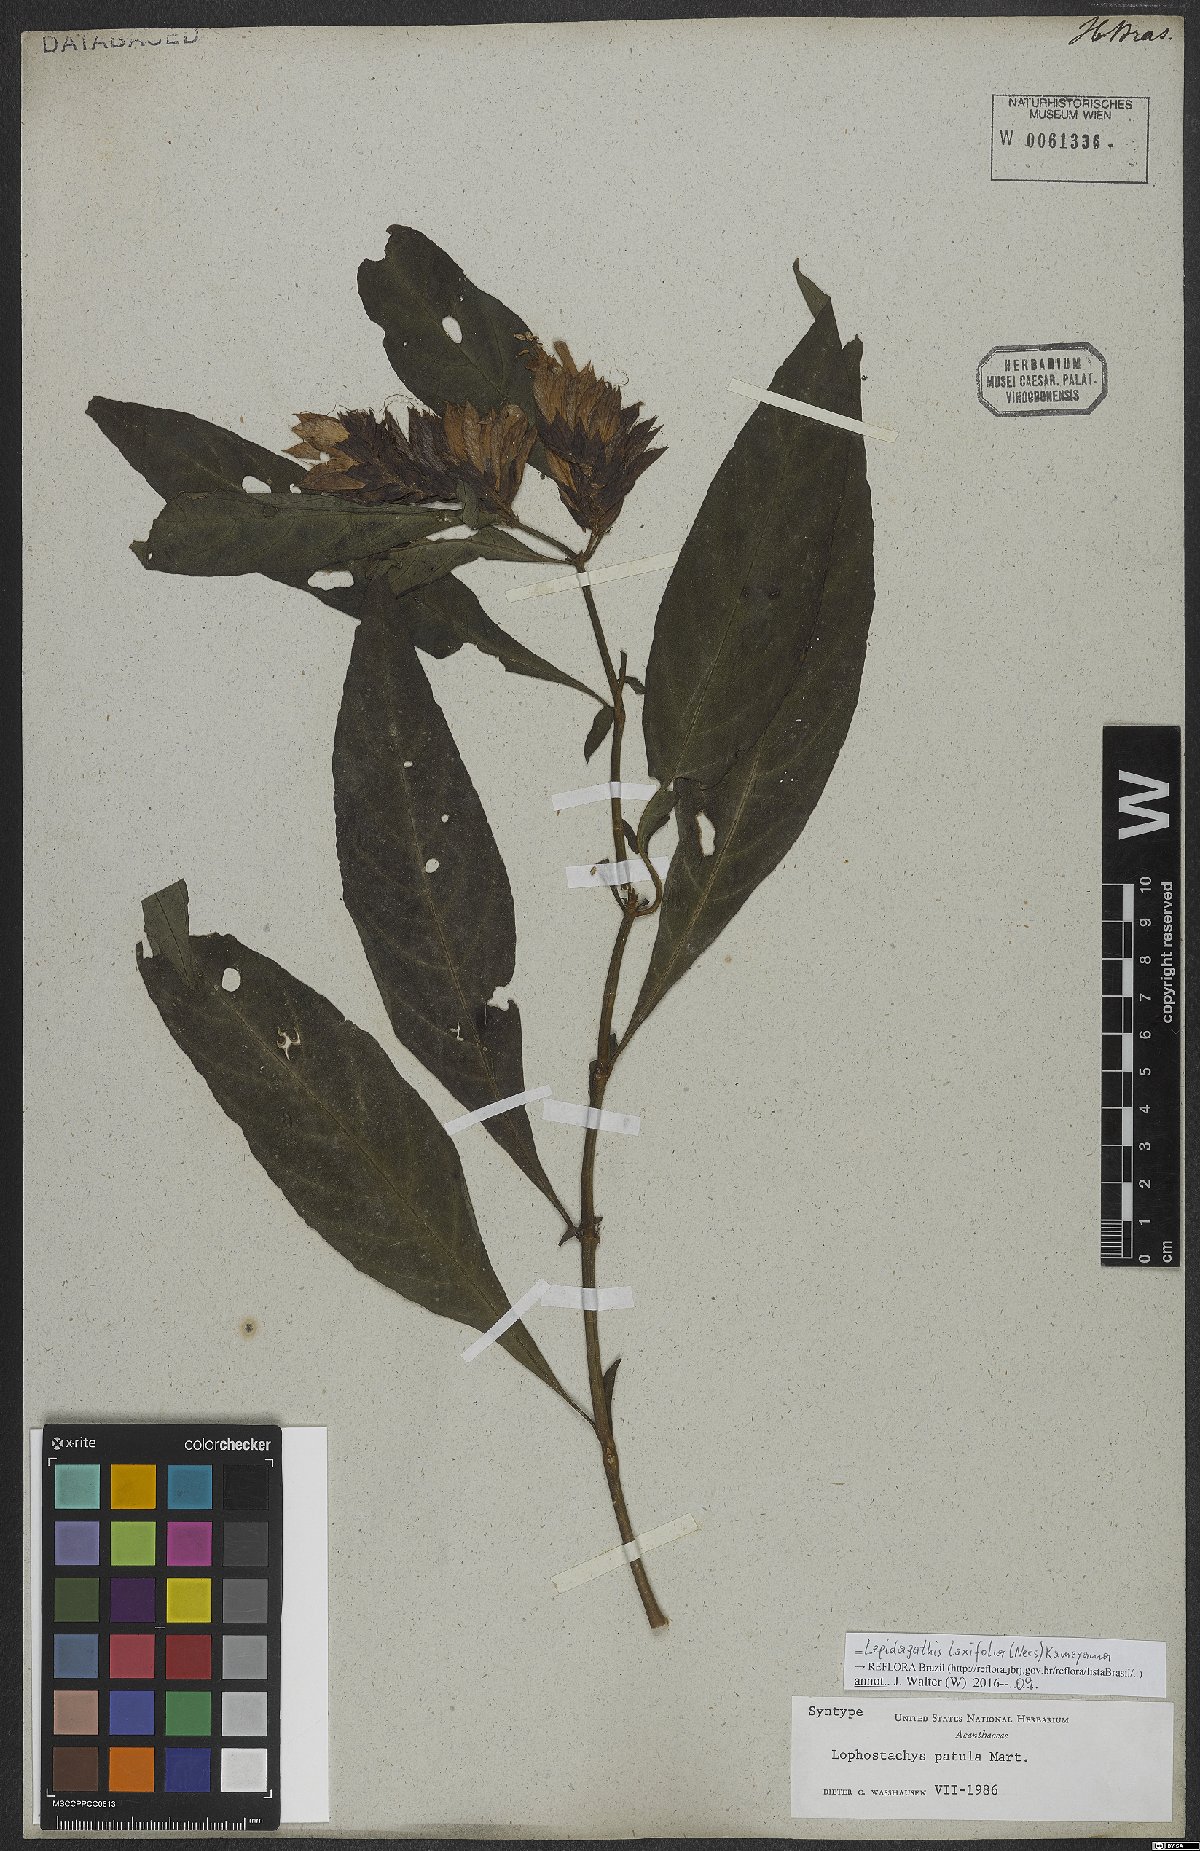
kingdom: Plantae
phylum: Tracheophyta
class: Magnoliopsida
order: Lamiales
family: Acanthaceae
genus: Lepidagathis
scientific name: Lepidagathis laxifolia
